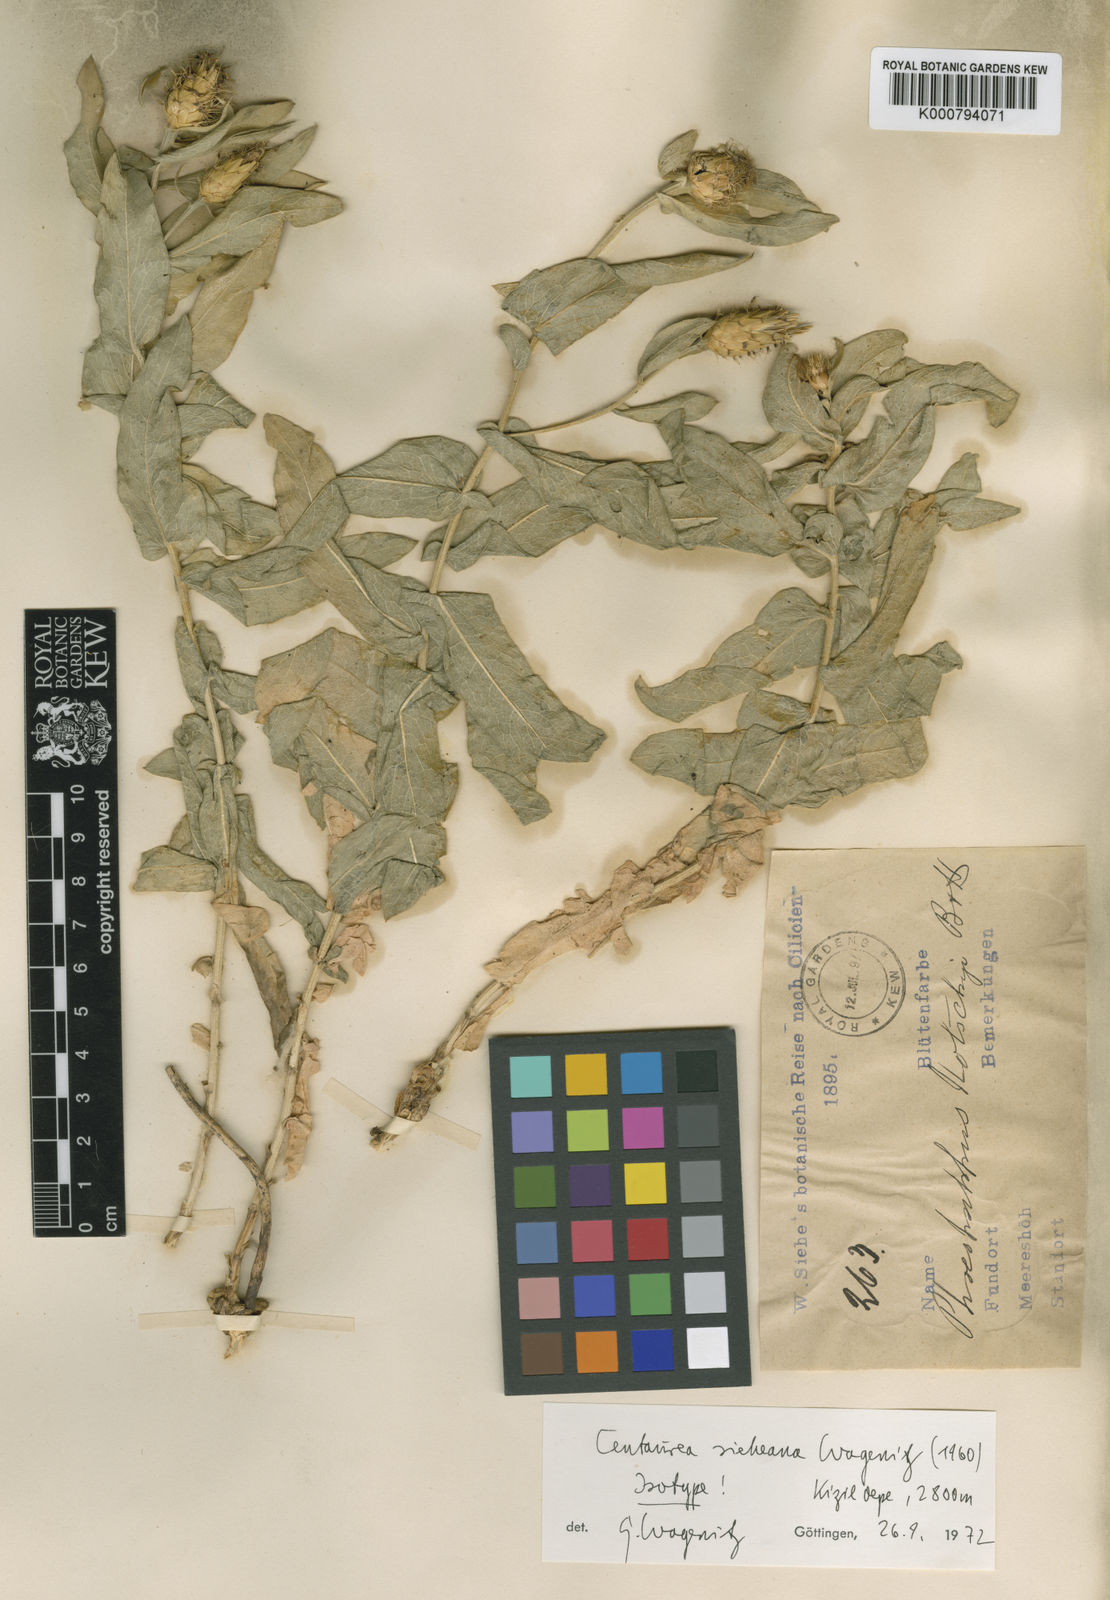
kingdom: Plantae
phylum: Tracheophyta
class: Magnoliopsida
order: Asterales
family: Asteraceae
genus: Centaurea
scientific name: Centaurea sieheana
